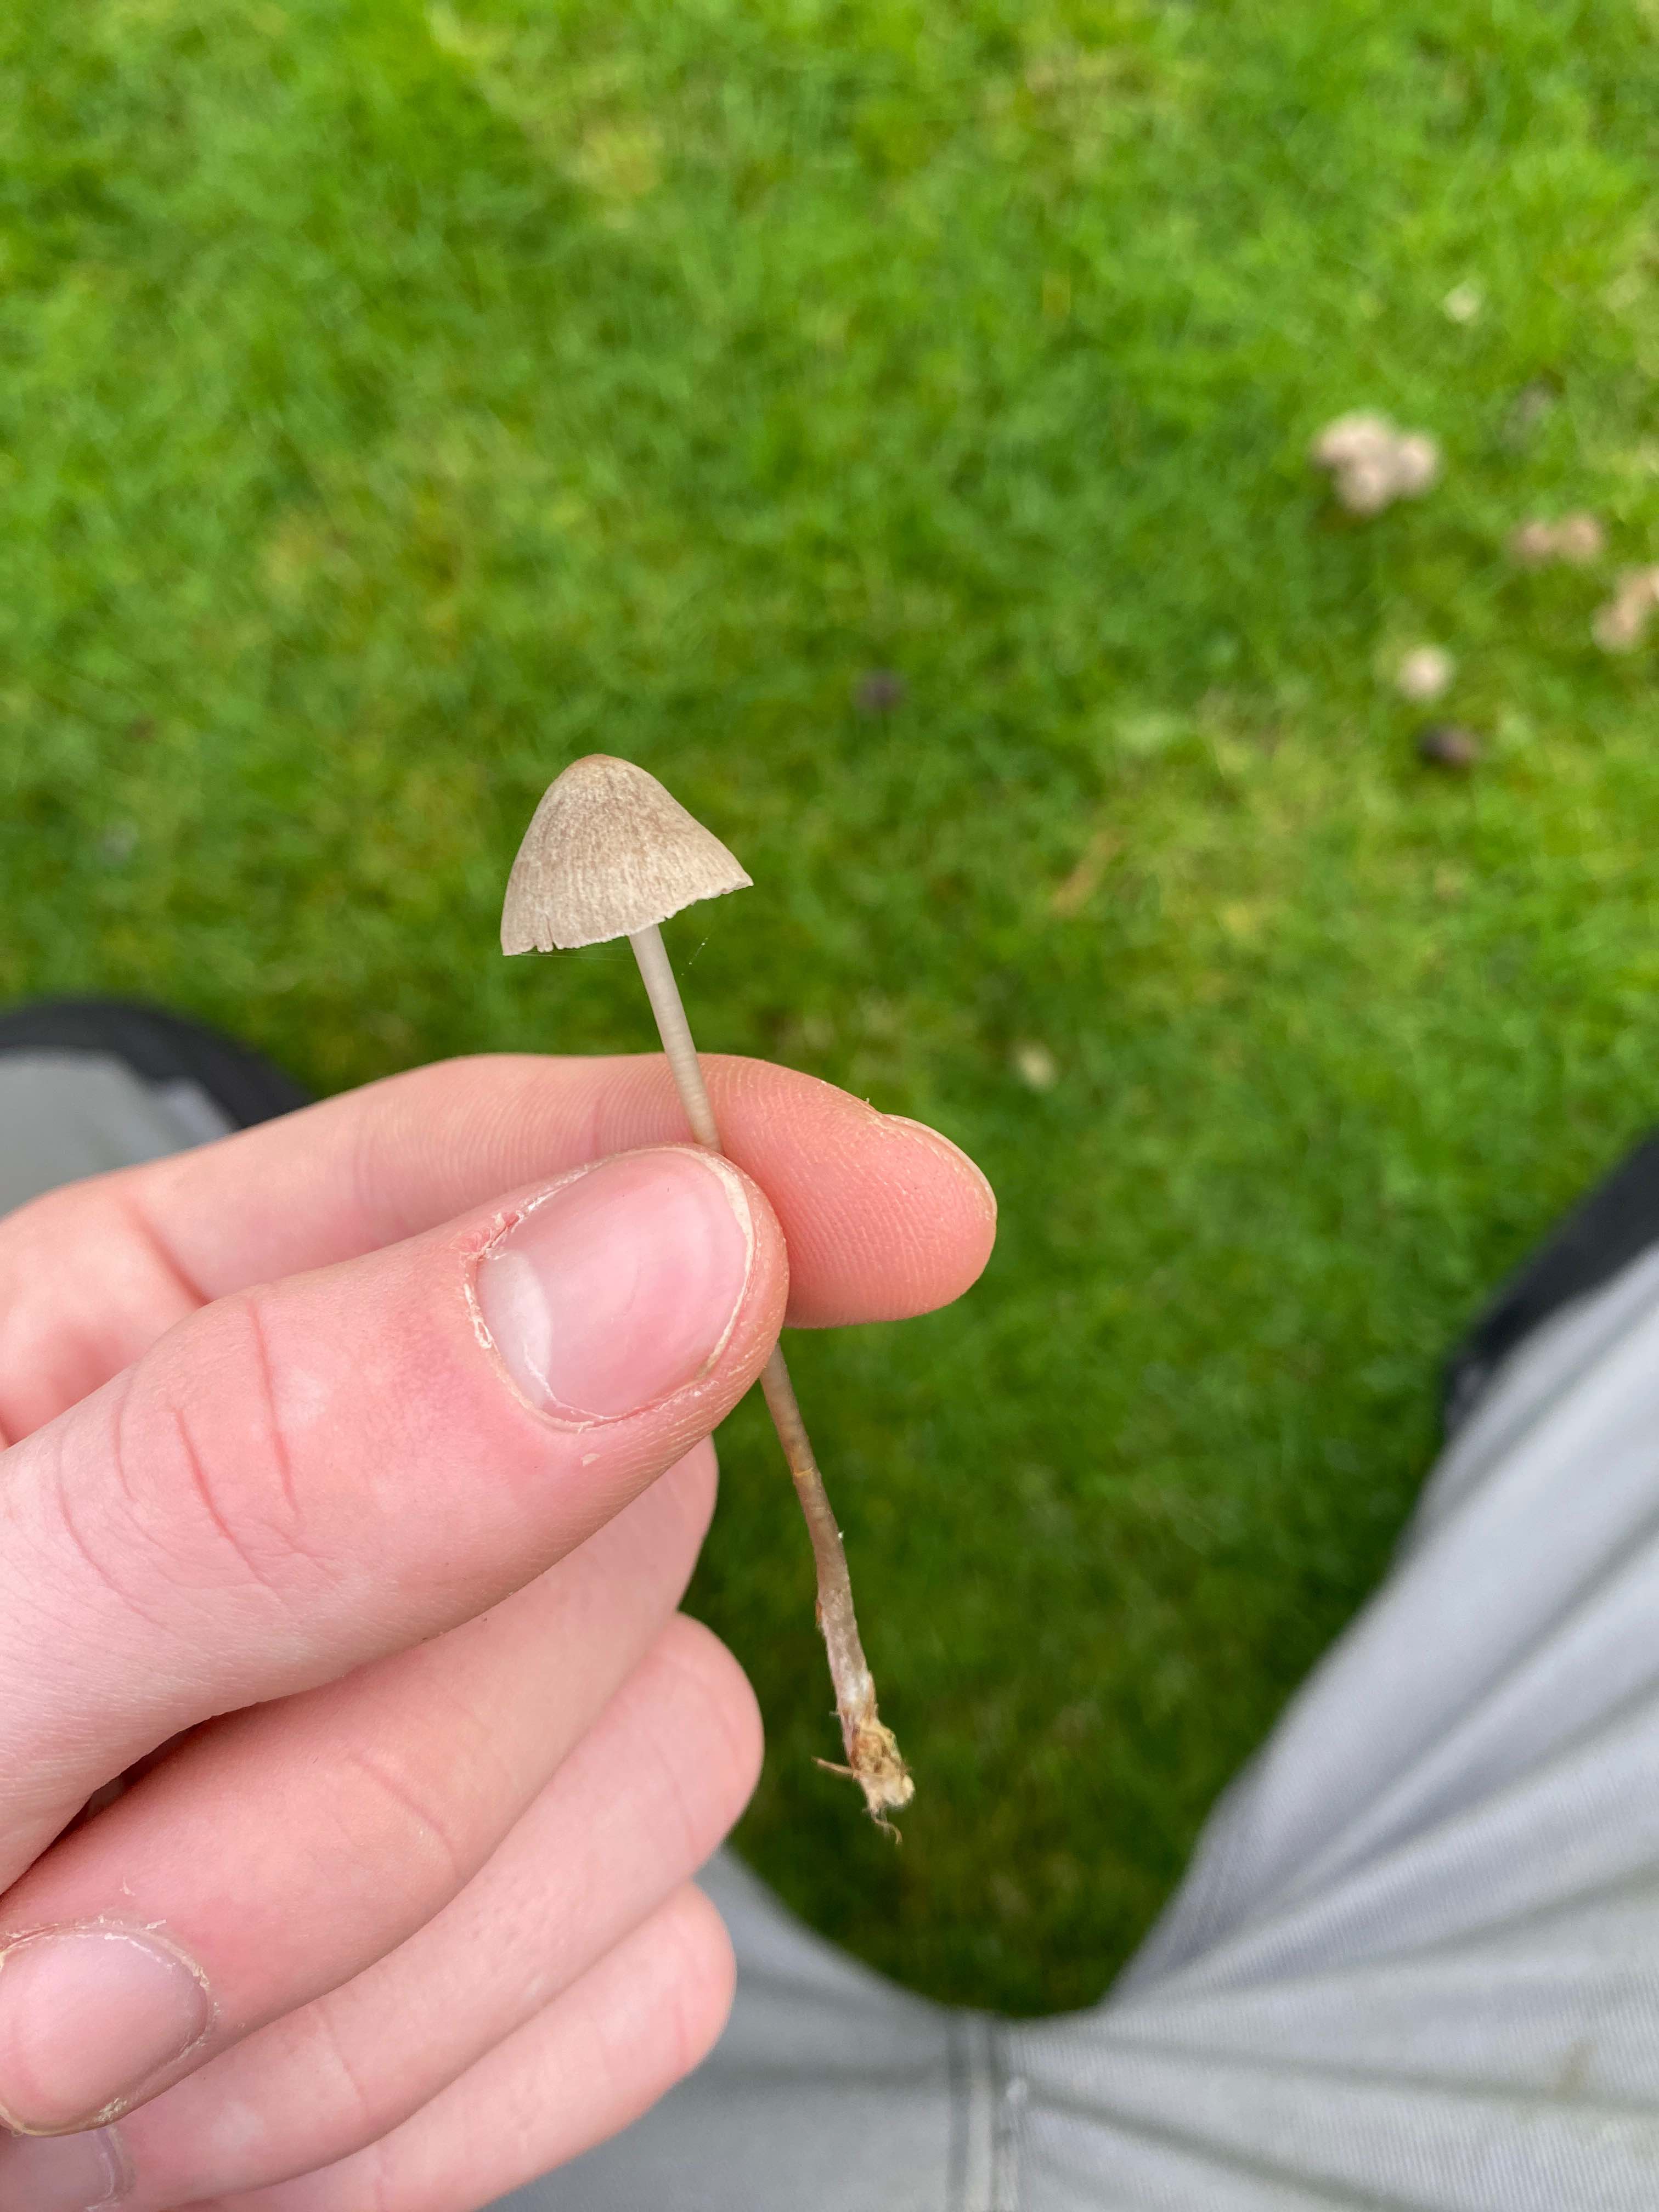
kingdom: Fungi
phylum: Basidiomycota
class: Agaricomycetes
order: Agaricales
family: Mycenaceae
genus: Mycena
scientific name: Mycena
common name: huesvamp
